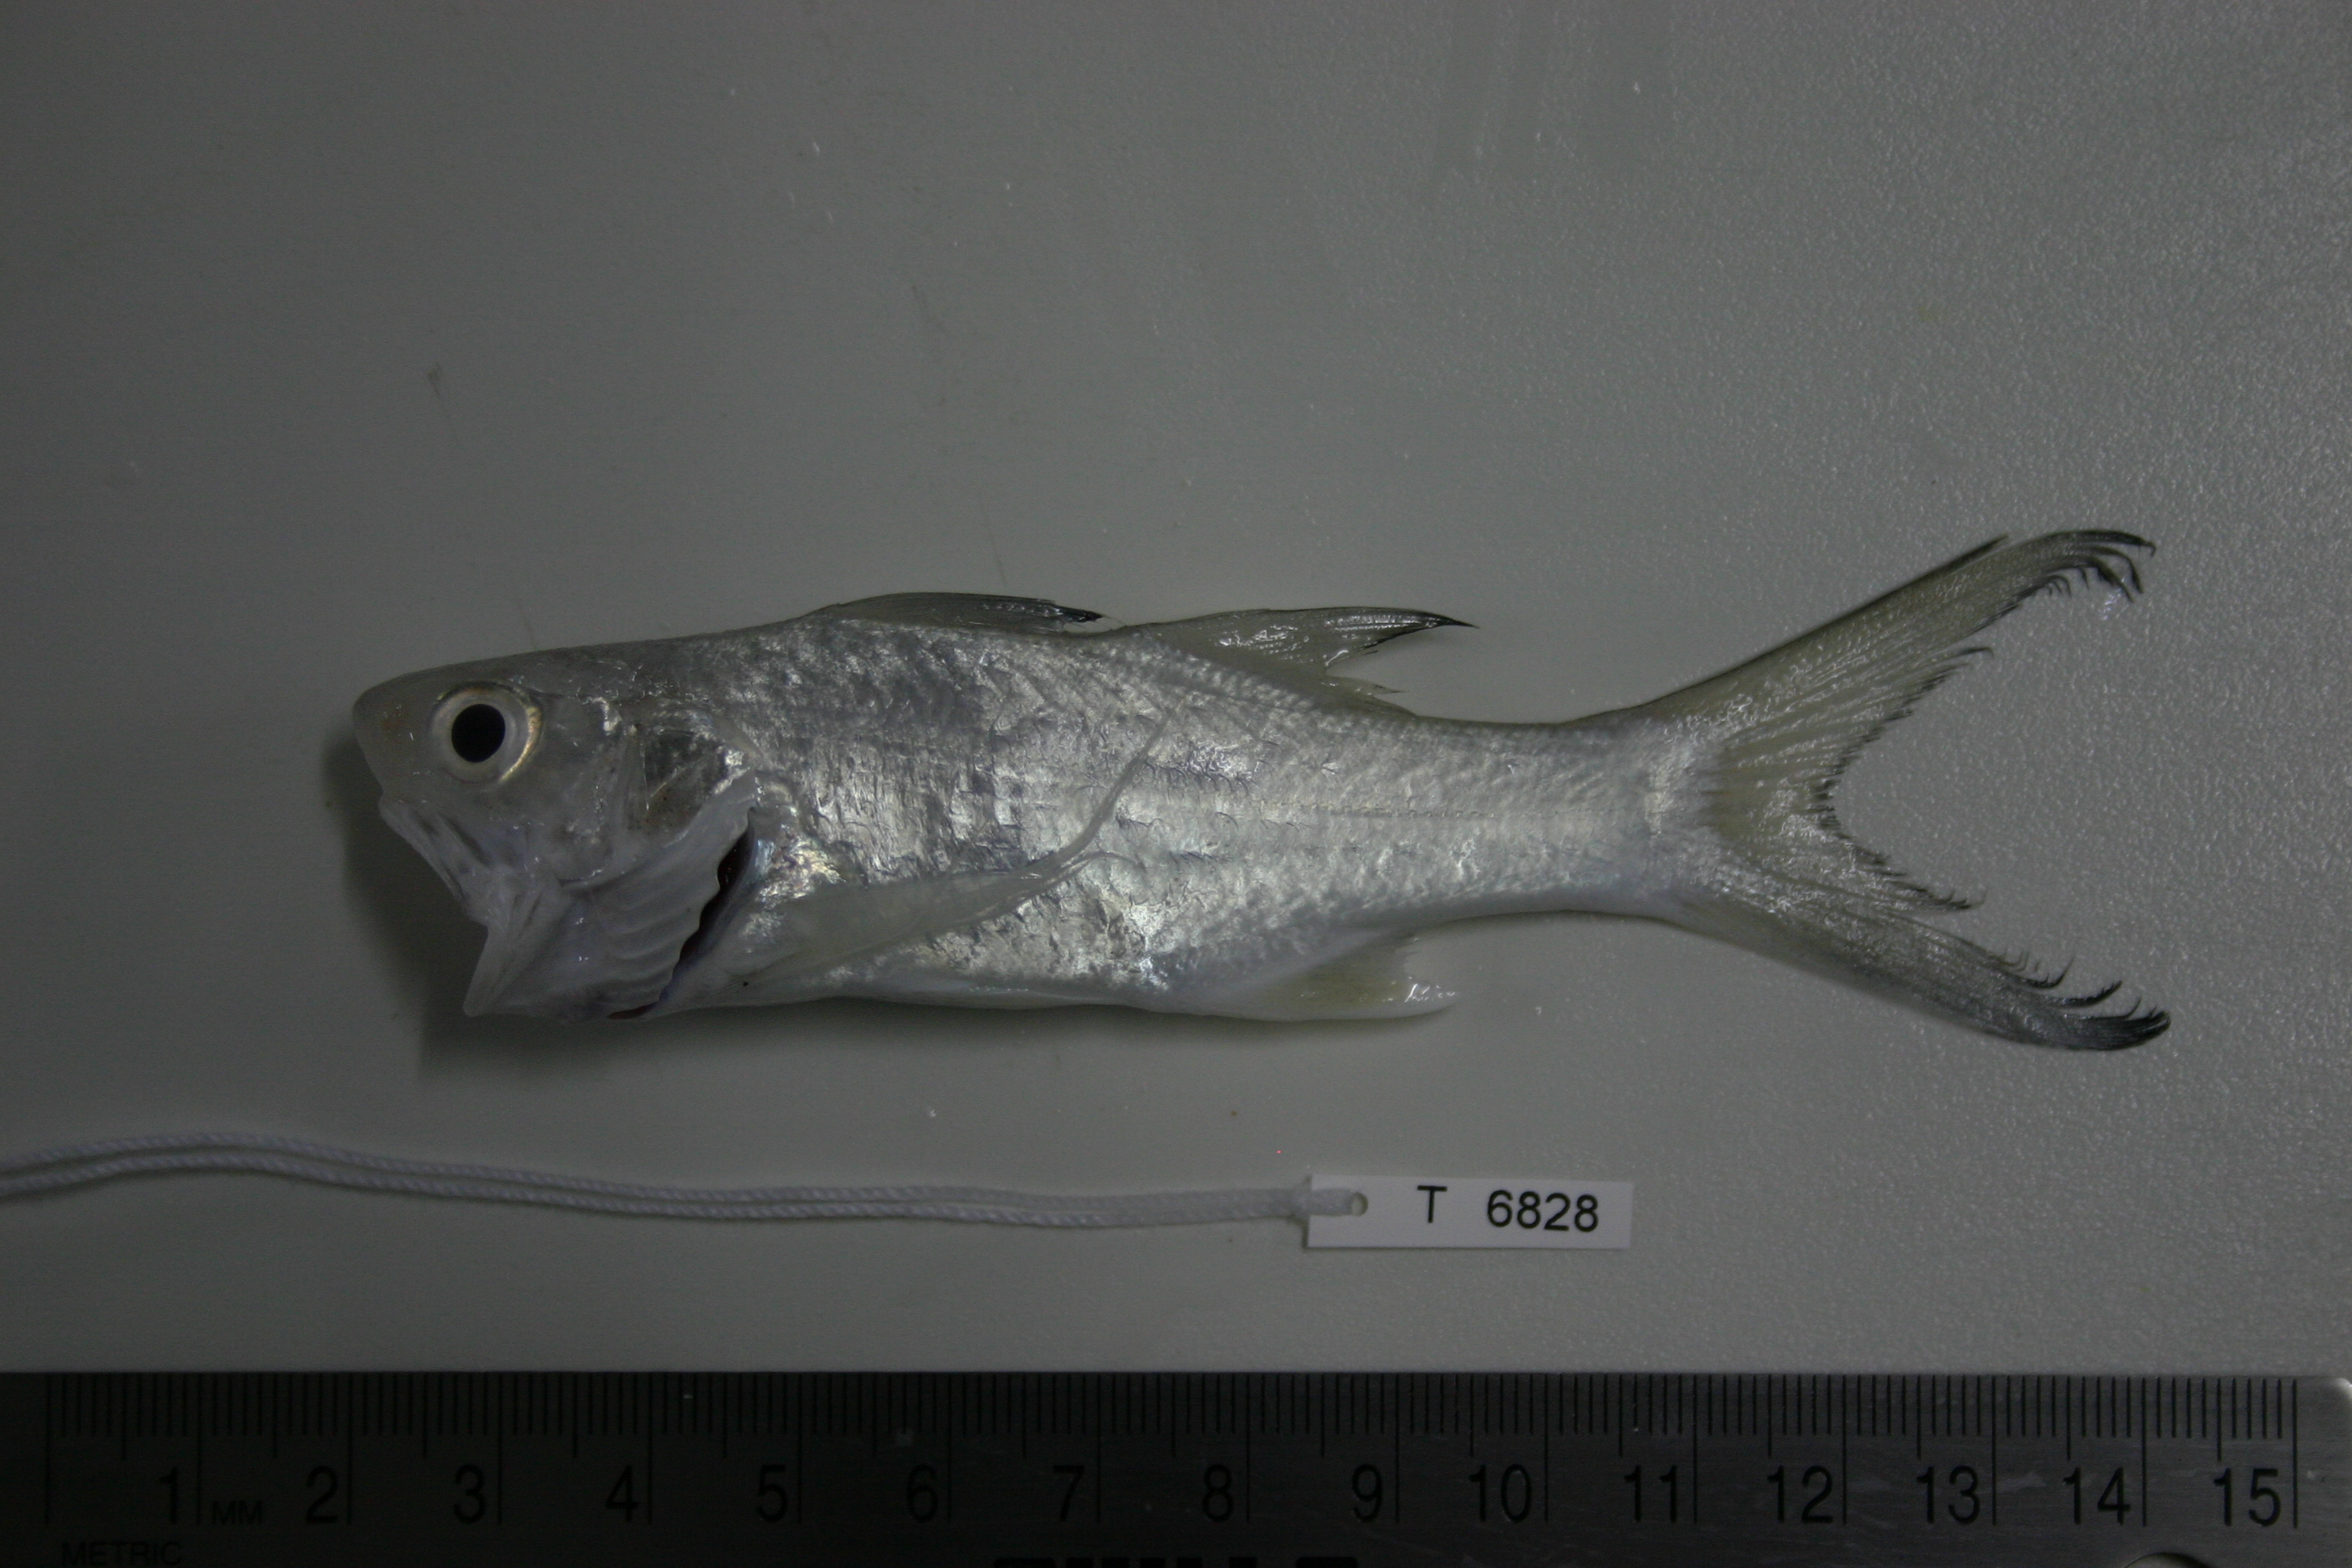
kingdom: Animalia
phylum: Chordata
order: Perciformes
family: Polynemidae
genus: Polydactylus
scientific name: Polydactylus sexfilis
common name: Six-fingered threadfin
